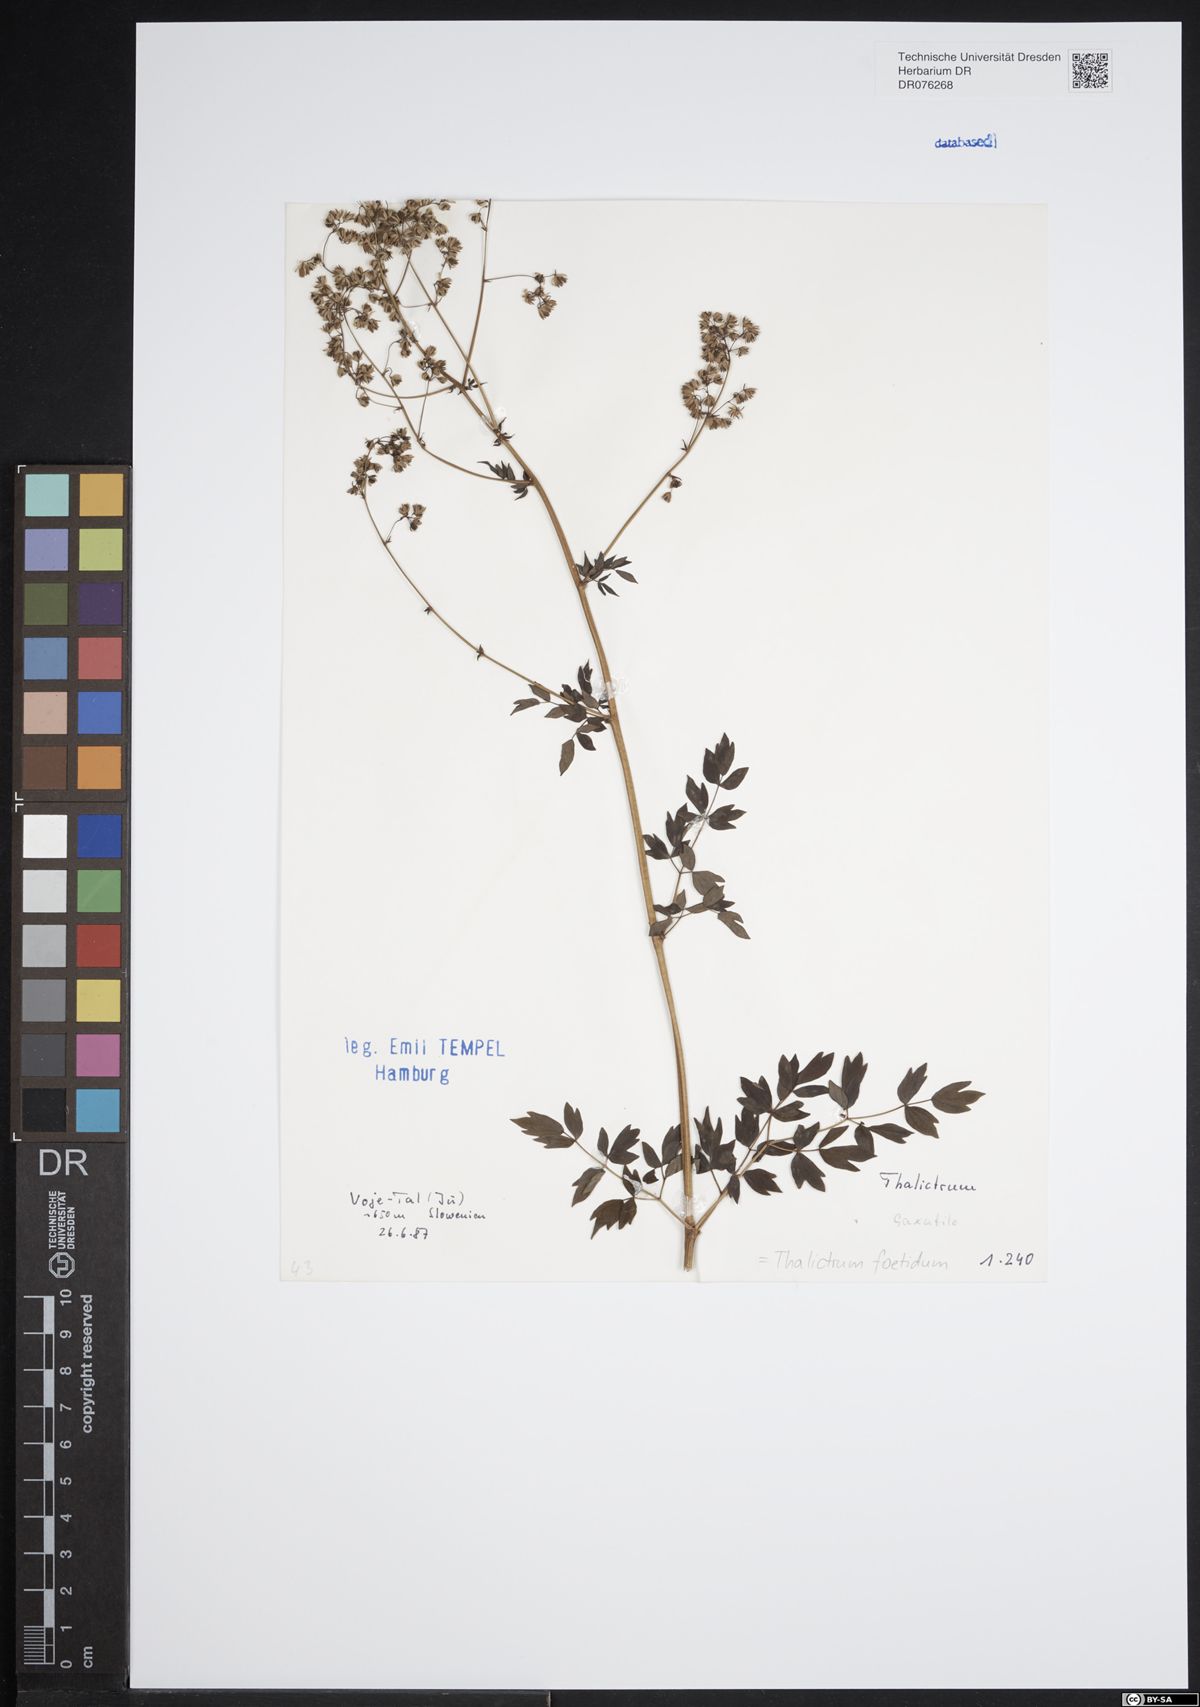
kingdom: Plantae
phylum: Tracheophyta
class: Magnoliopsida
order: Ranunculales
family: Ranunculaceae
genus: Thalictrum
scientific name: Thalictrum foetidum
